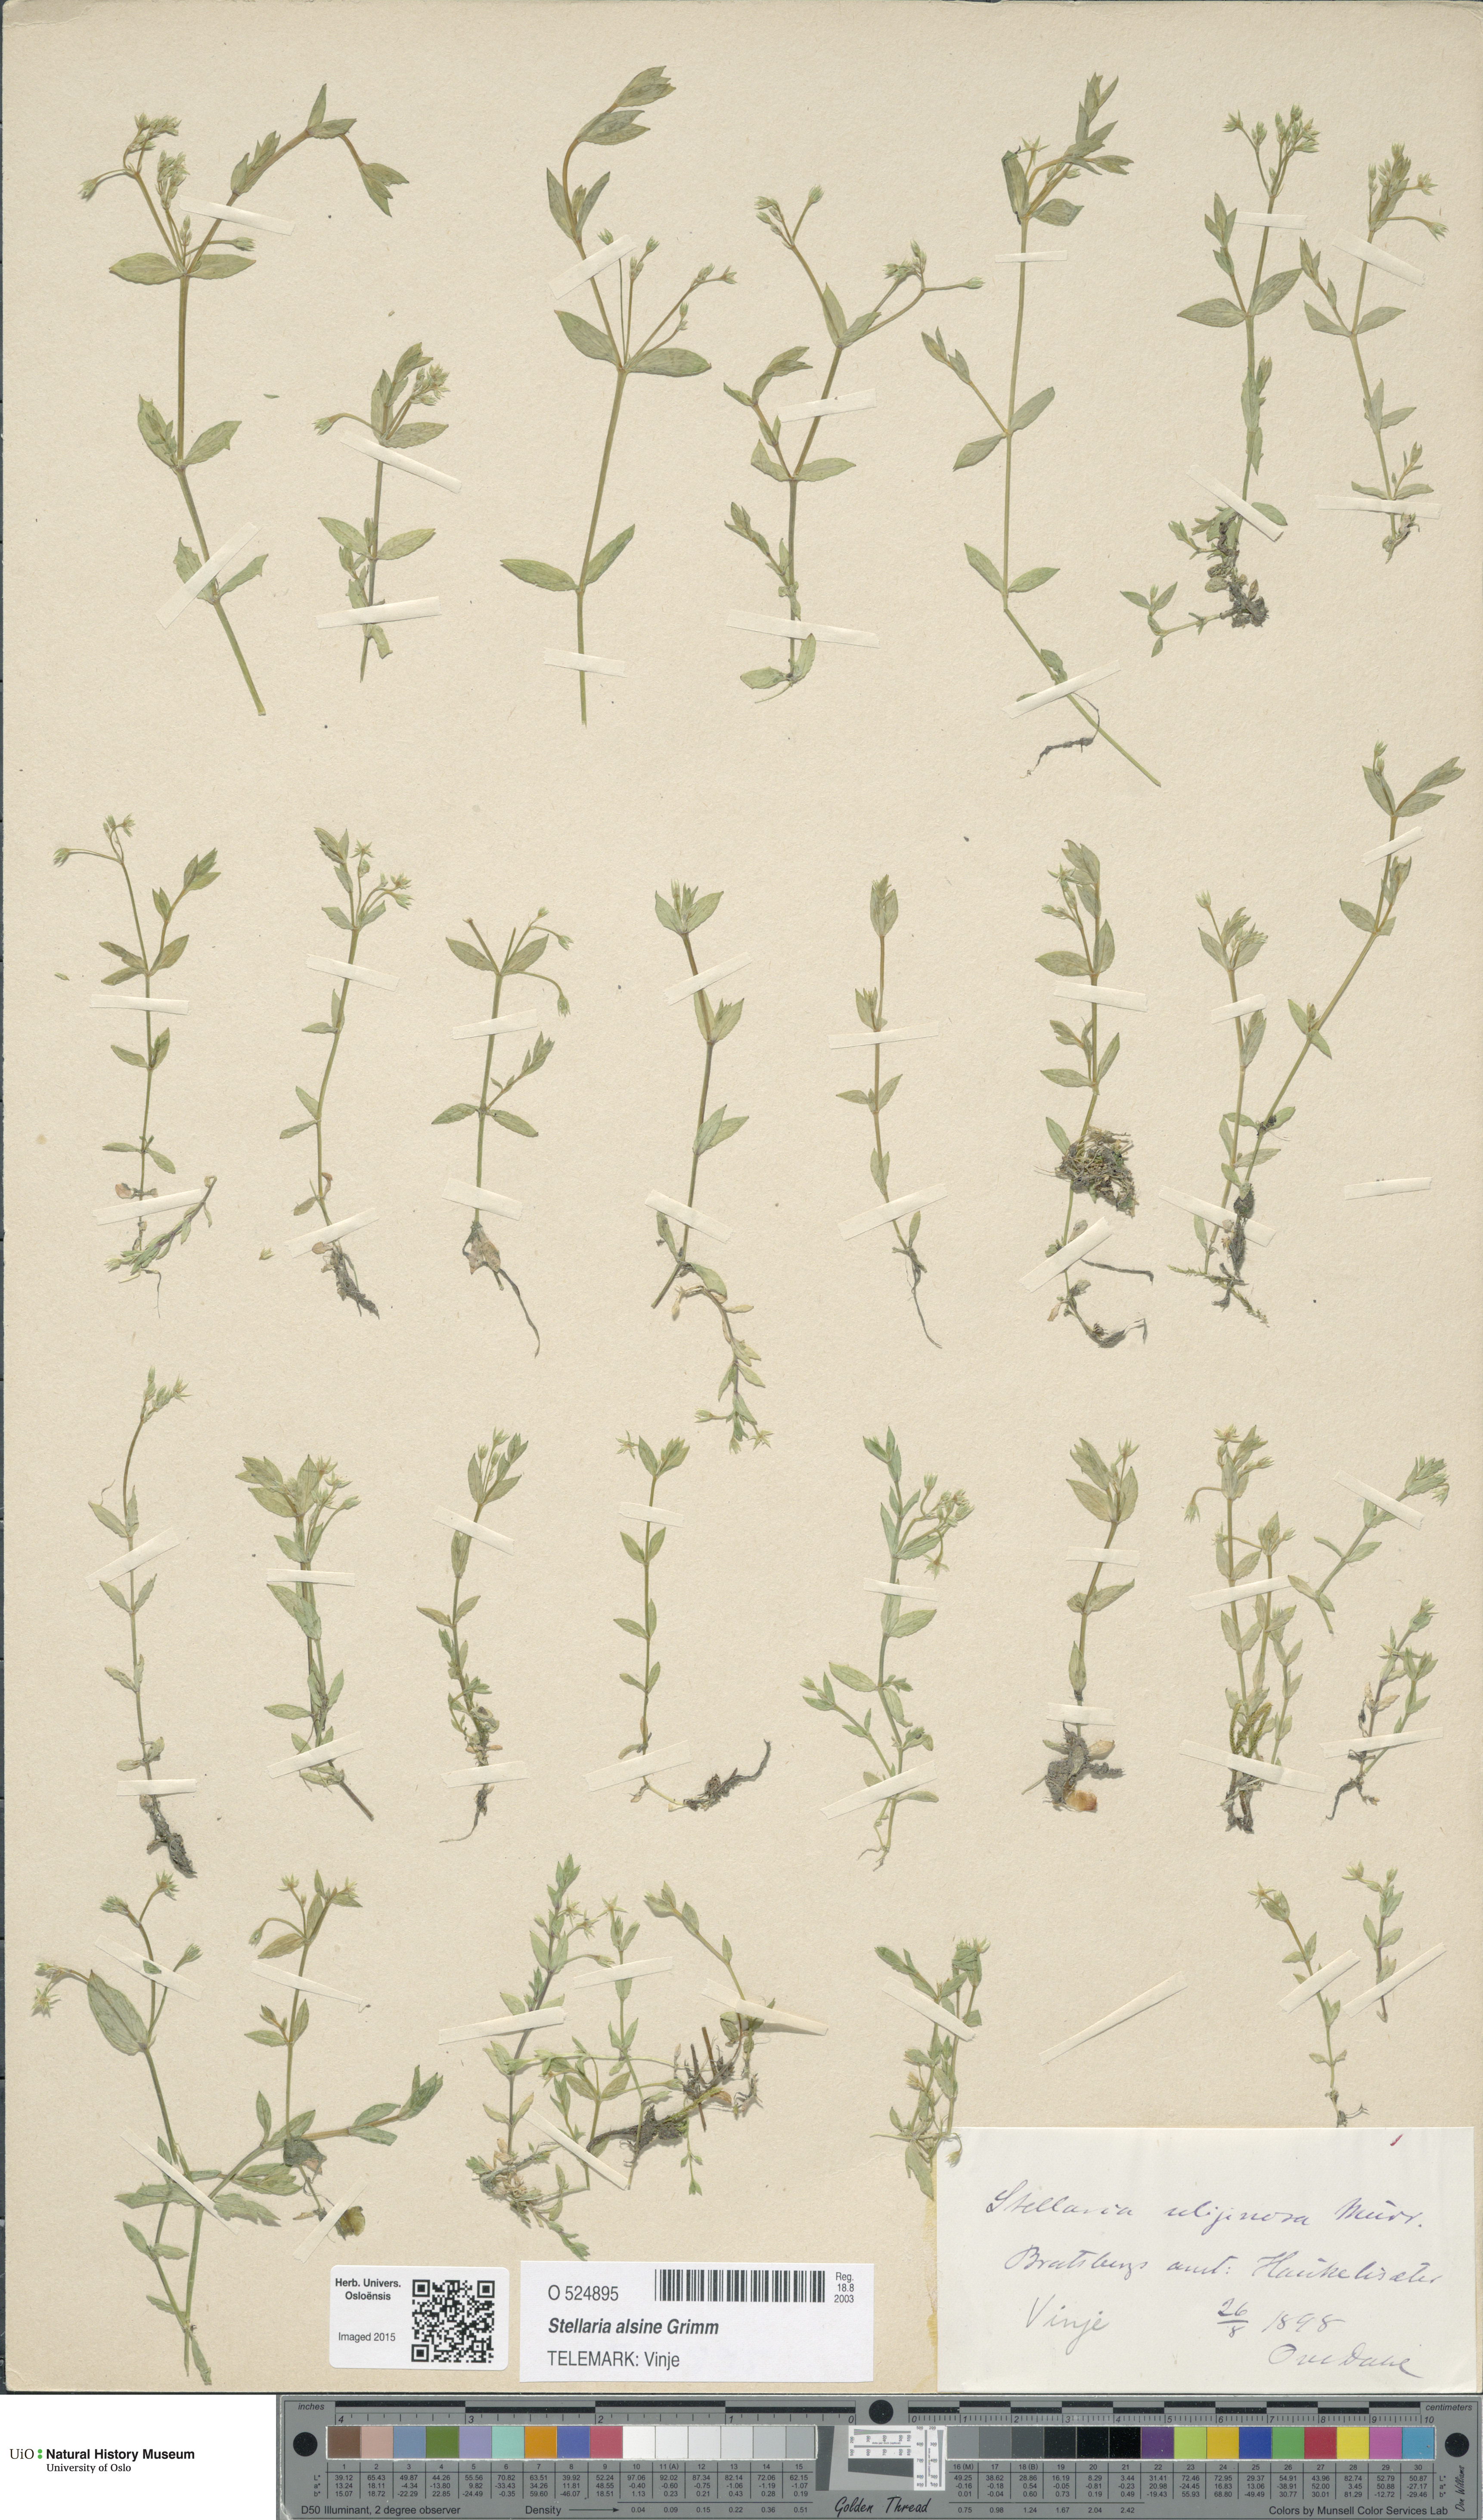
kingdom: Plantae
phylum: Tracheophyta
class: Magnoliopsida
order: Caryophyllales
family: Caryophyllaceae
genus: Stellaria
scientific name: Stellaria alsine
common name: Bog stitchwort
